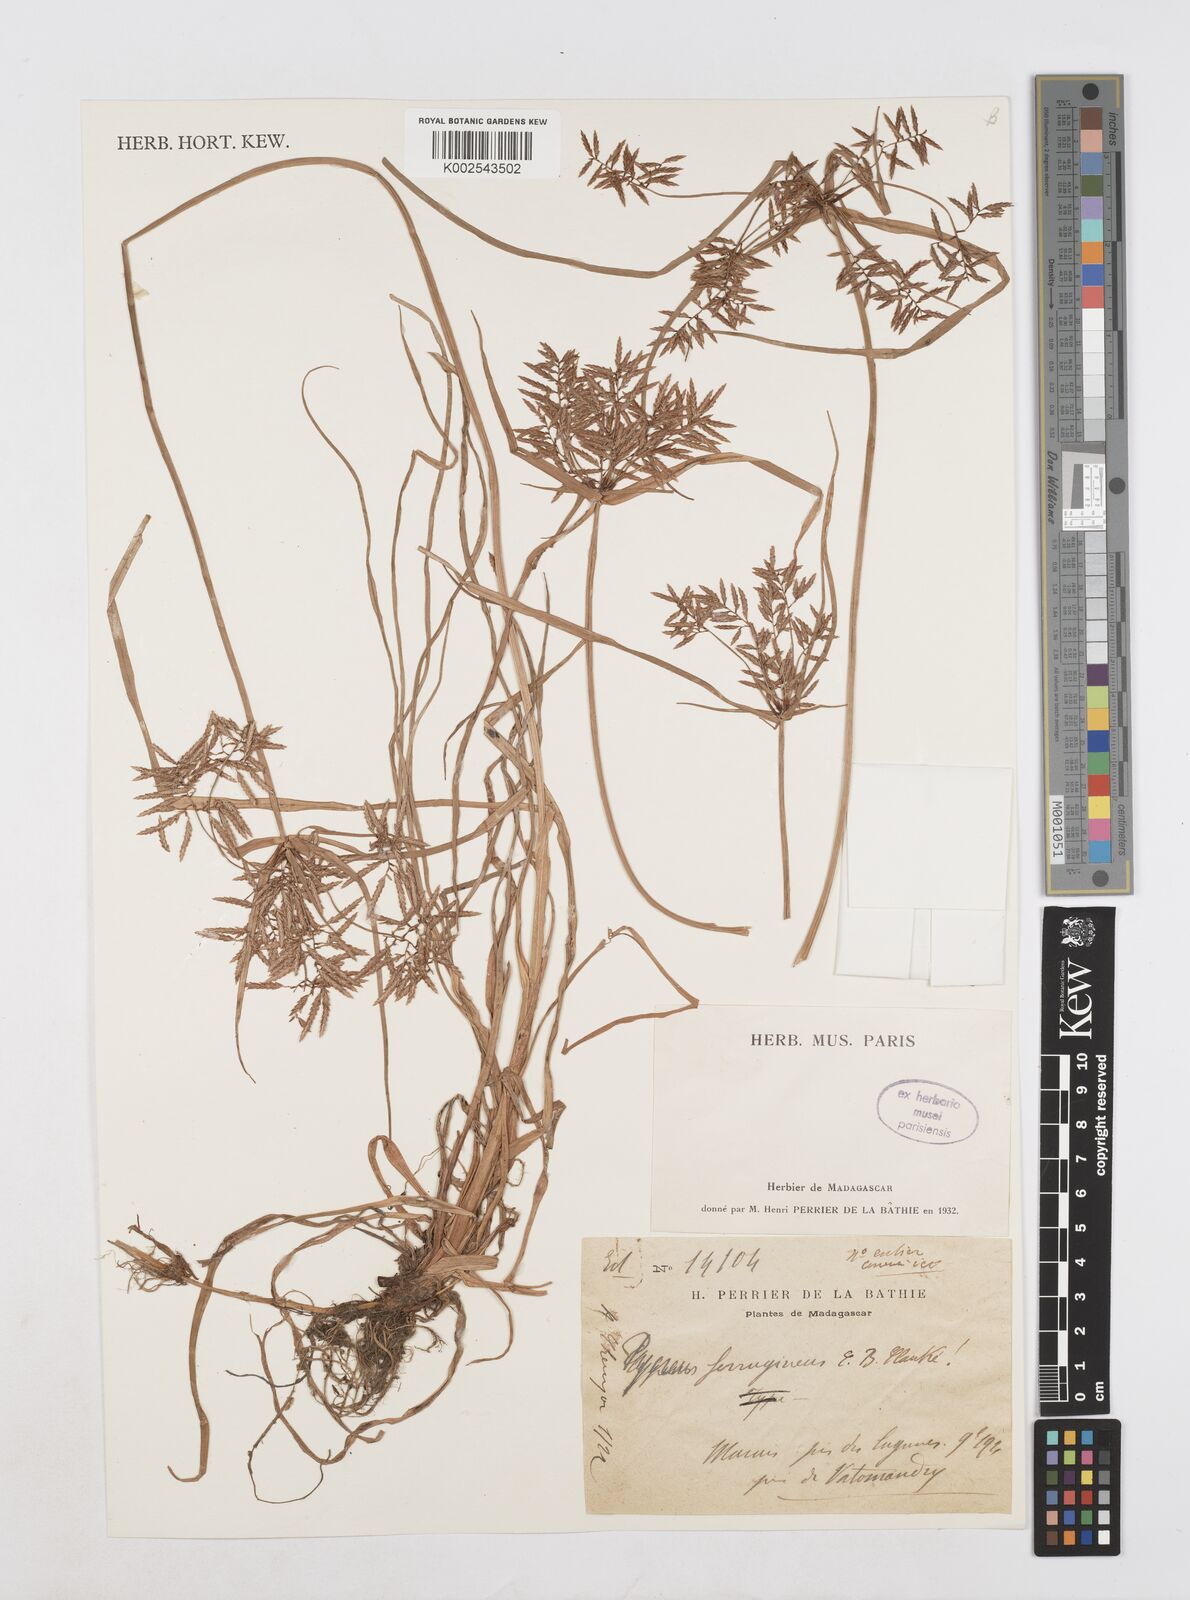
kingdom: Plantae
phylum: Tracheophyta
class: Liliopsida
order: Poales
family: Cyperaceae
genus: Cyperus
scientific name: Cyperus intactus
